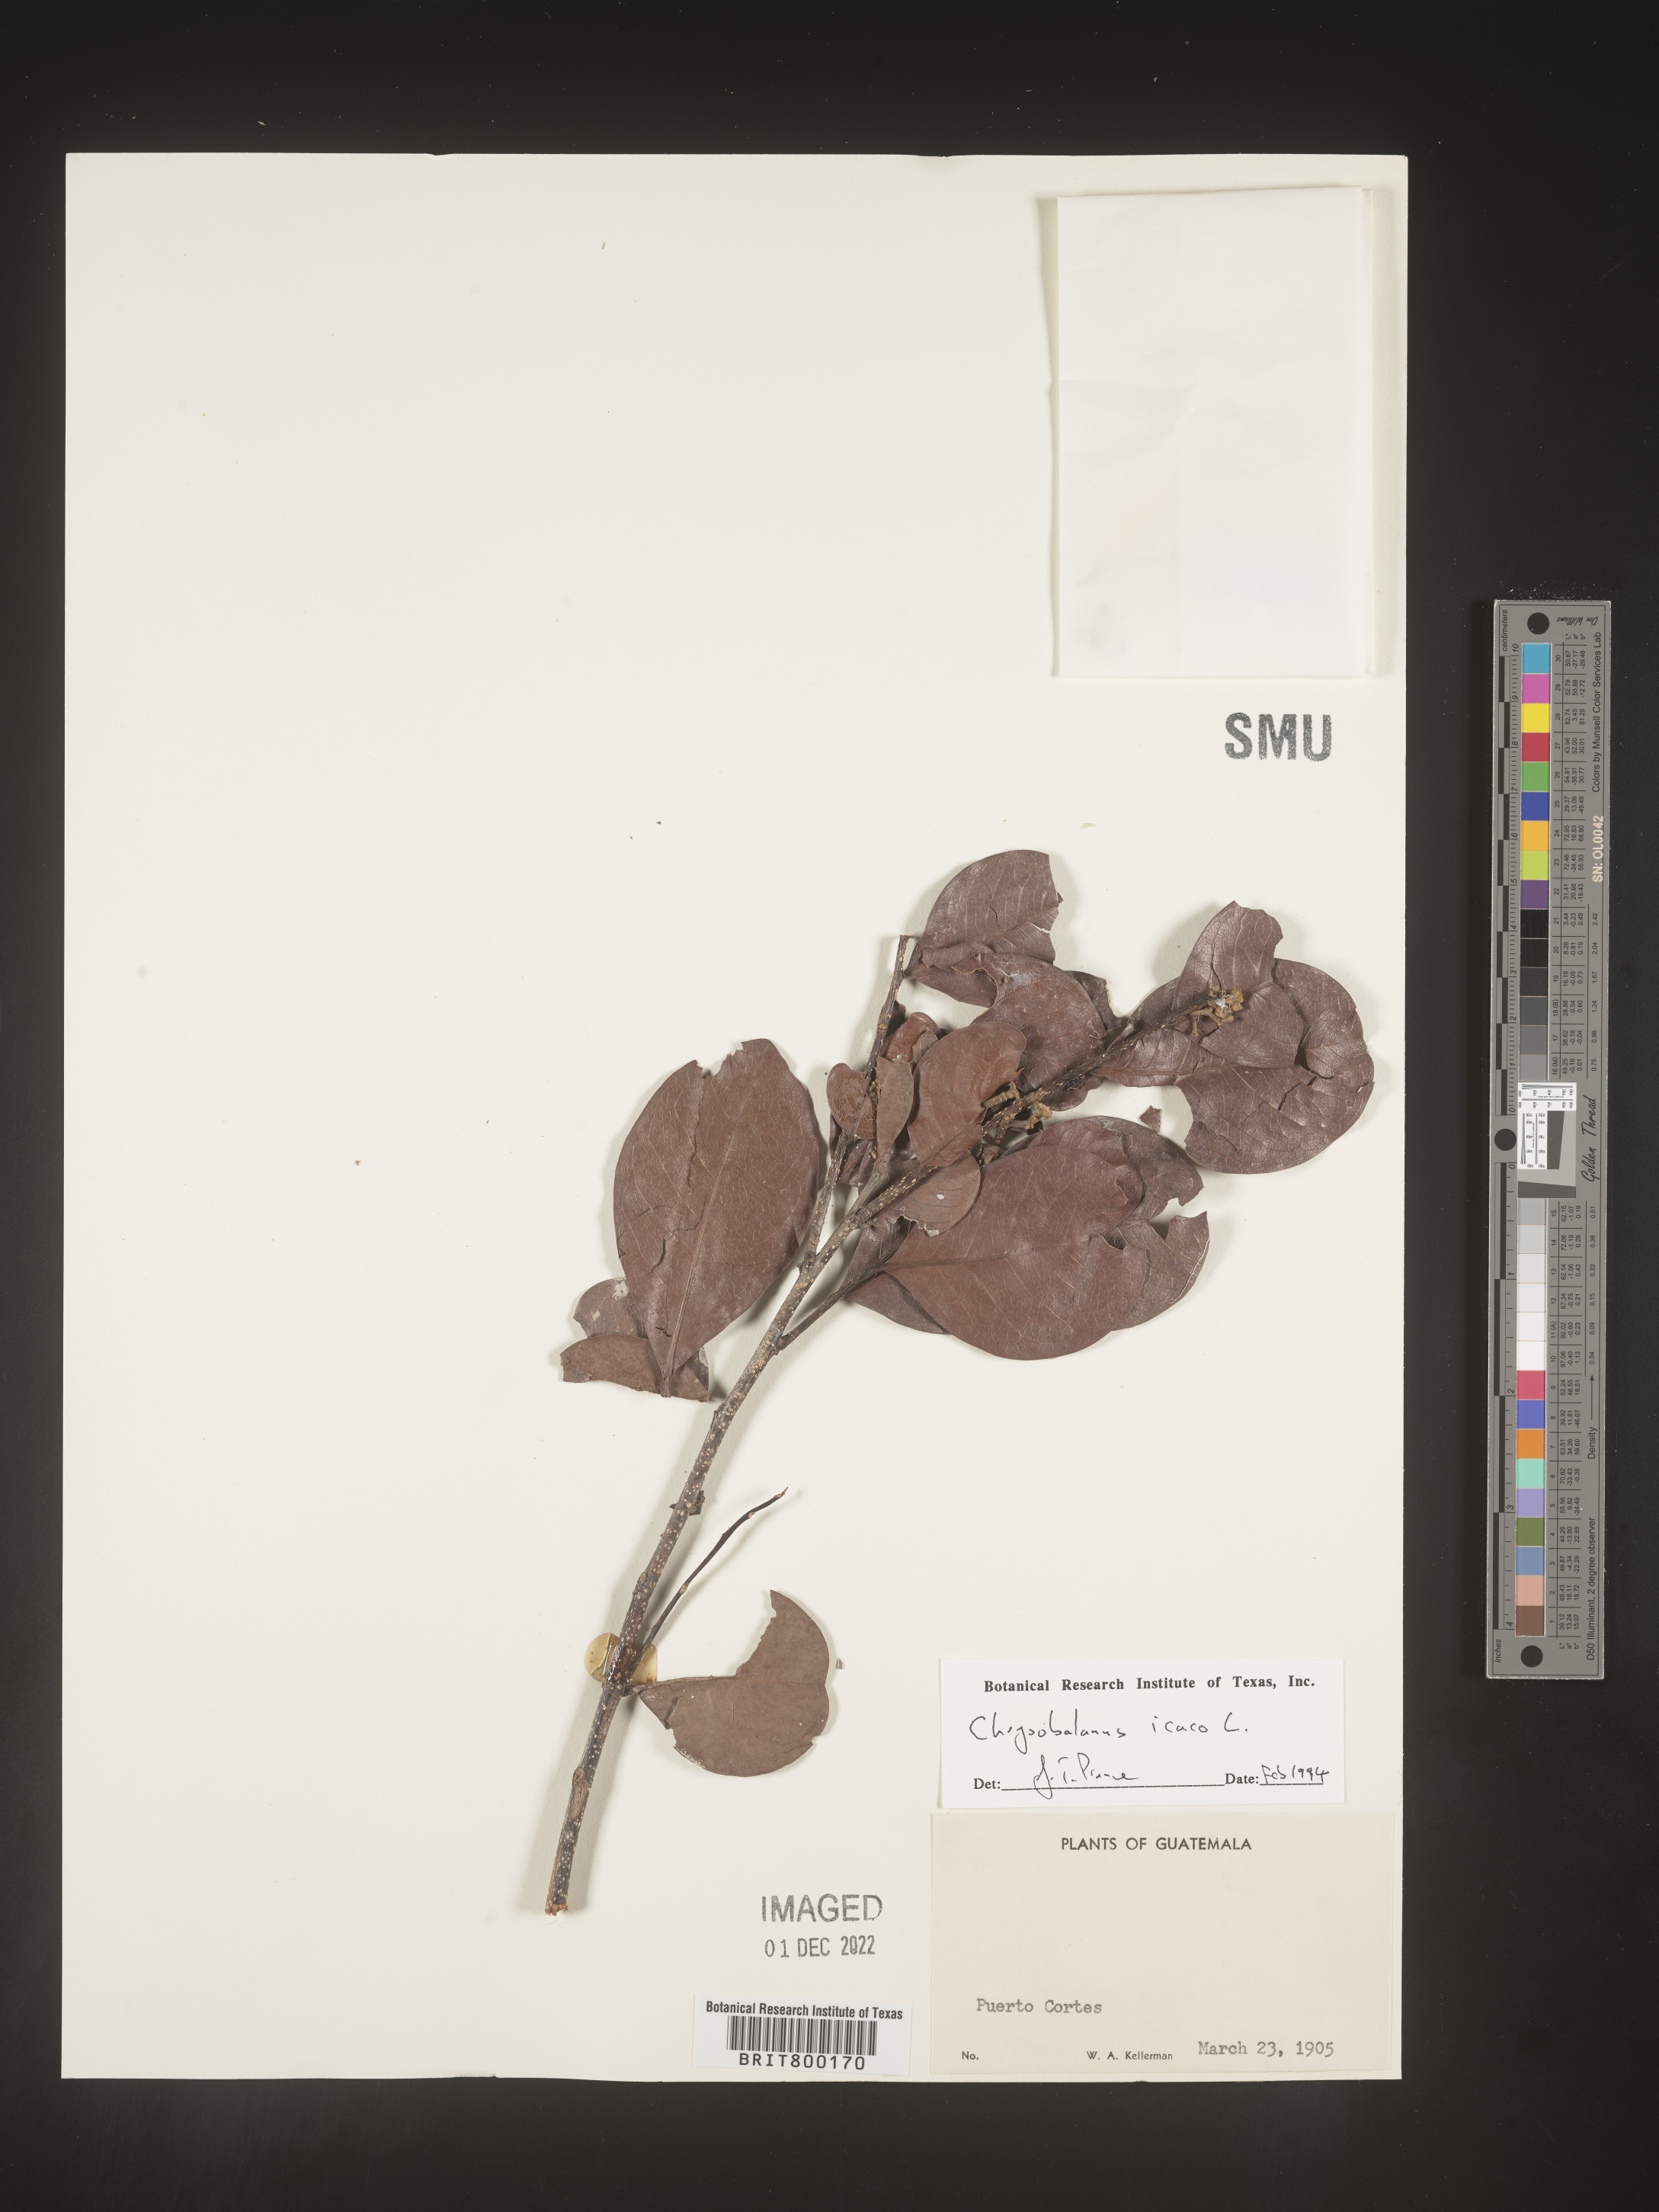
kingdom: Plantae
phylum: Tracheophyta
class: Magnoliopsida
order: Malpighiales
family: Chrysobalanaceae
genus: Chrysobalanus
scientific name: Chrysobalanus
